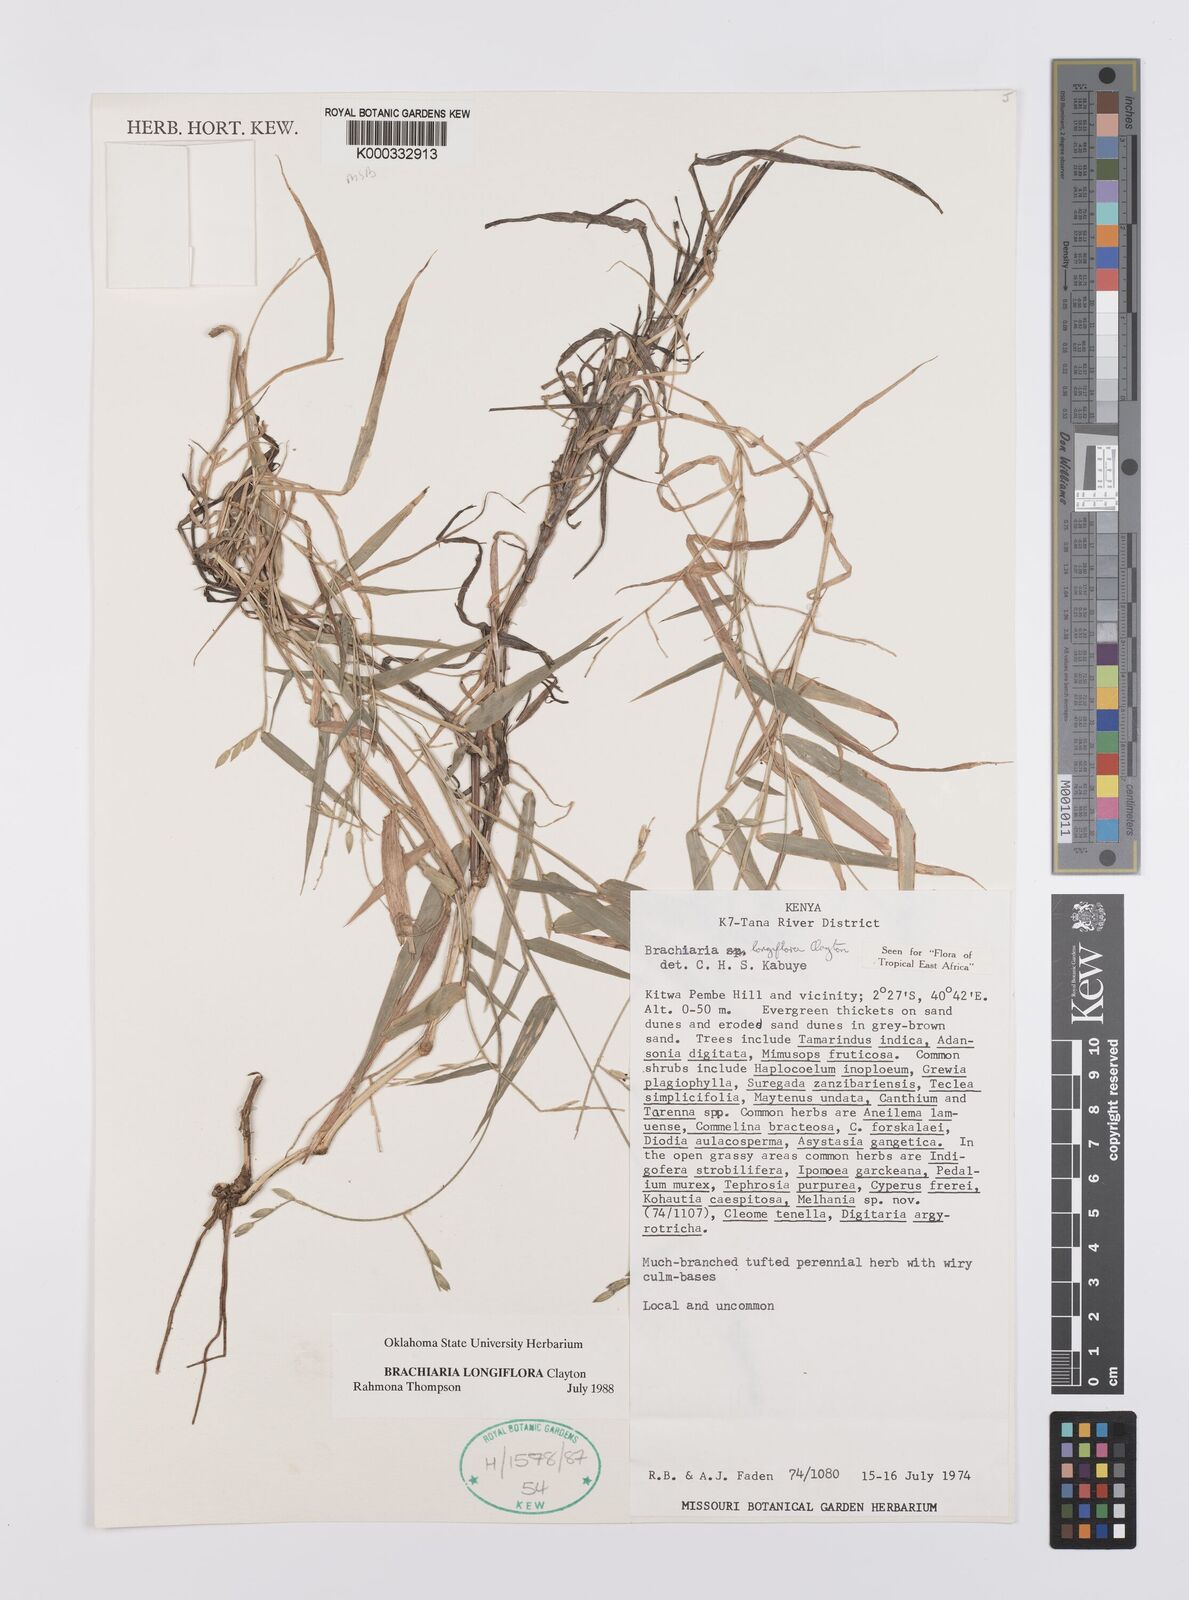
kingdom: Plantae
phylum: Tracheophyta
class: Liliopsida
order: Poales
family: Poaceae
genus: Urochloa
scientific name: Urochloa Brachiaria longiflora
